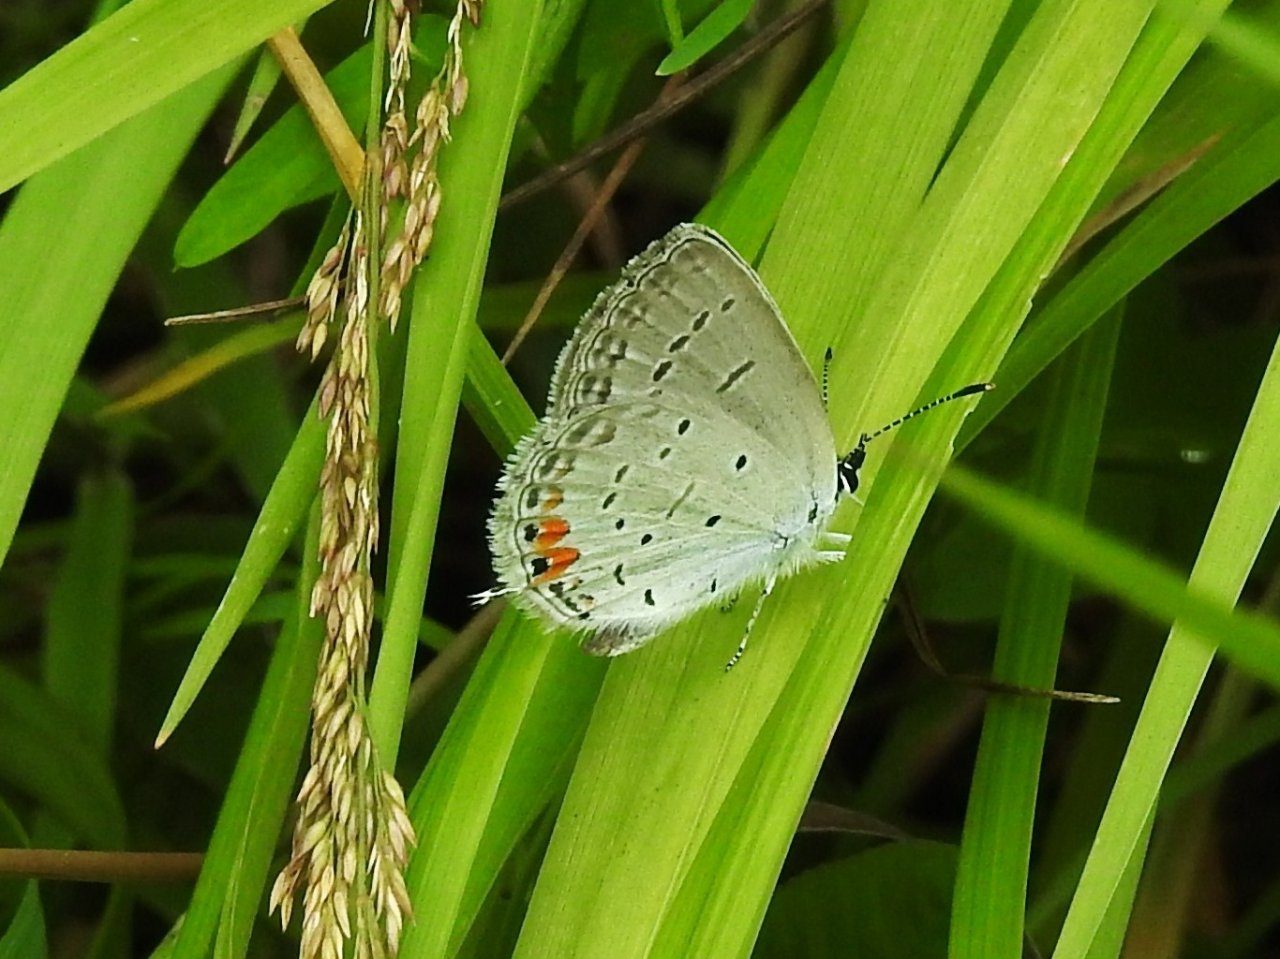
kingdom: Animalia
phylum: Arthropoda
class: Insecta
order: Lepidoptera
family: Lycaenidae
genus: Elkalyce
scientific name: Elkalyce comyntas
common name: Eastern Tailed-Blue
